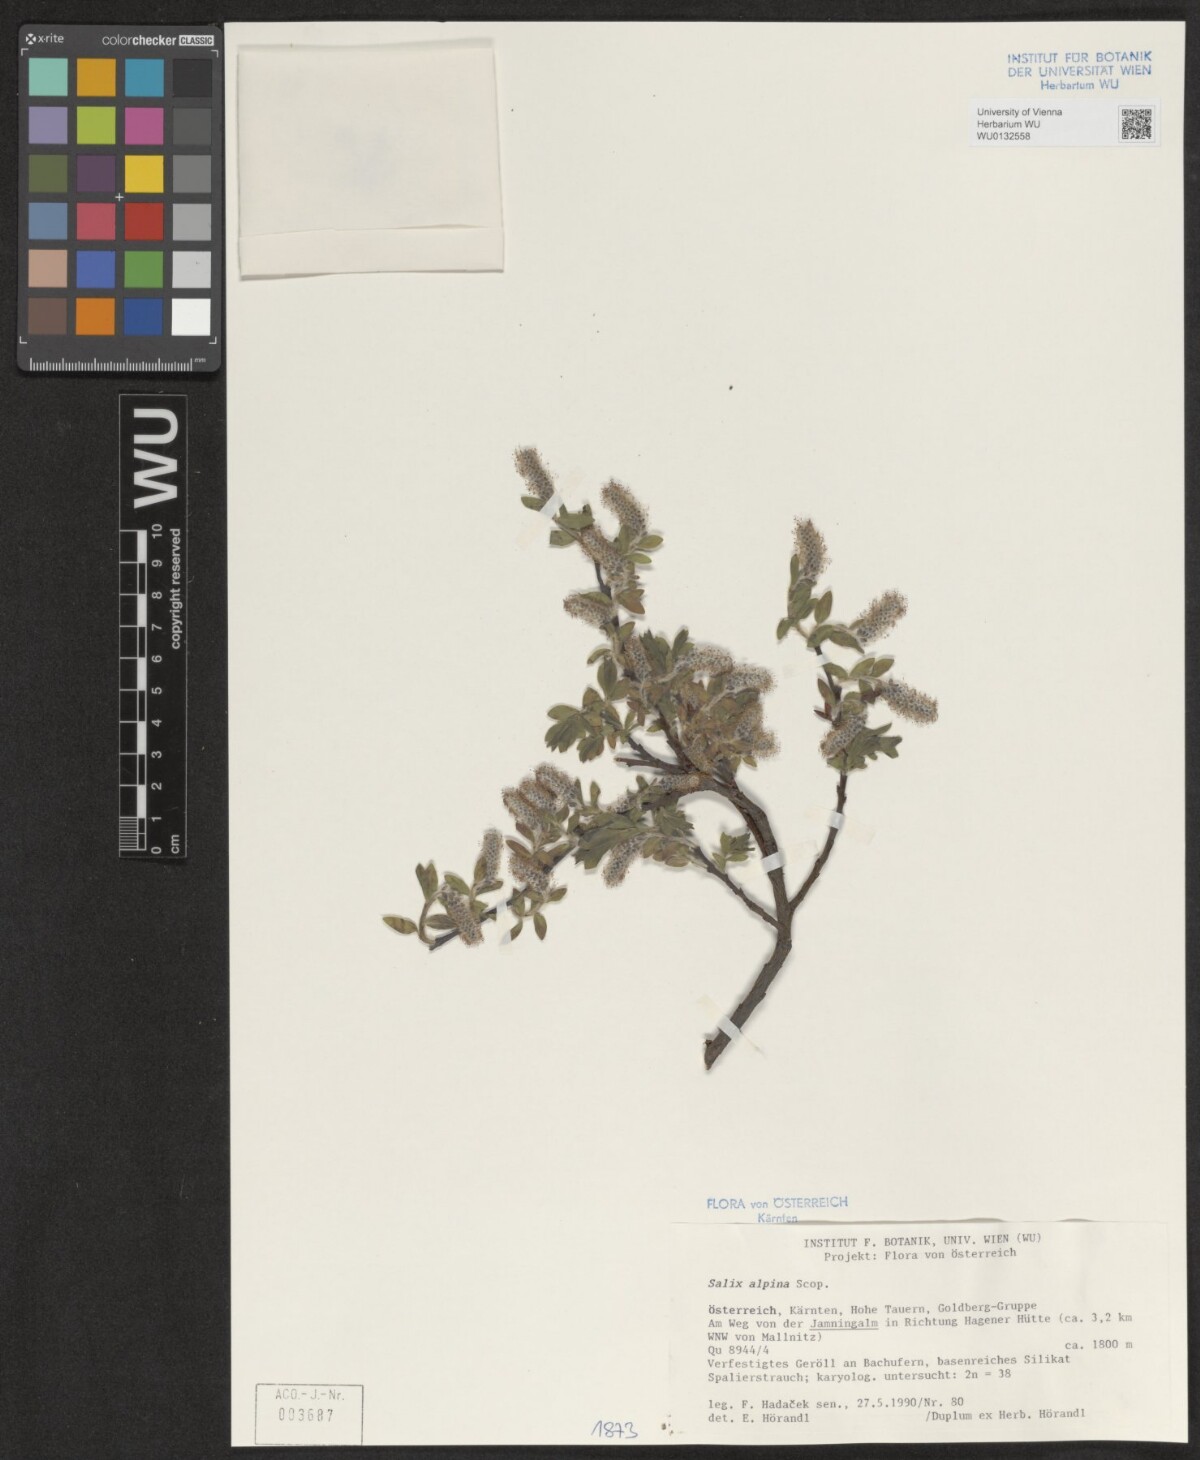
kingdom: Plantae
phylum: Tracheophyta
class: Magnoliopsida
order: Malpighiales
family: Salicaceae
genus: Salix
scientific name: Salix alpina
